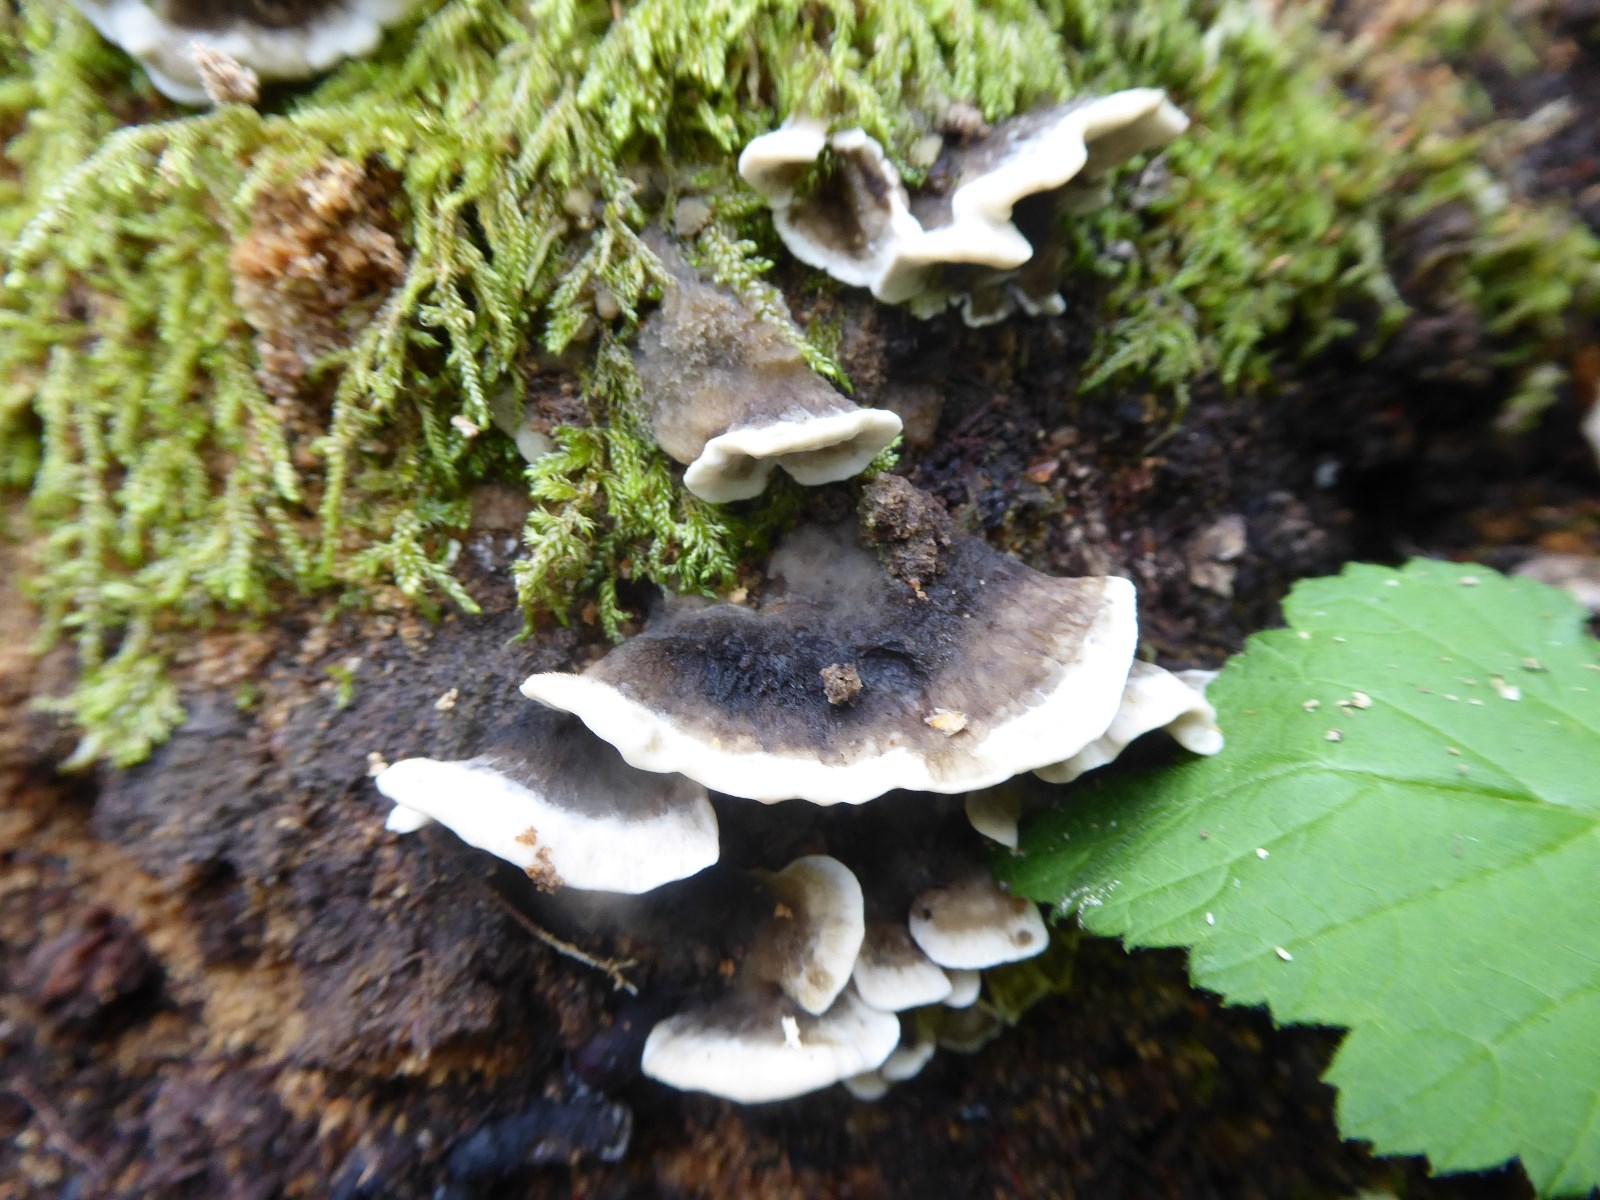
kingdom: Fungi
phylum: Basidiomycota
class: Agaricomycetes
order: Polyporales
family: Phanerochaetaceae
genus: Bjerkandera
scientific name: Bjerkandera adusta
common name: sveden sodporesvamp
